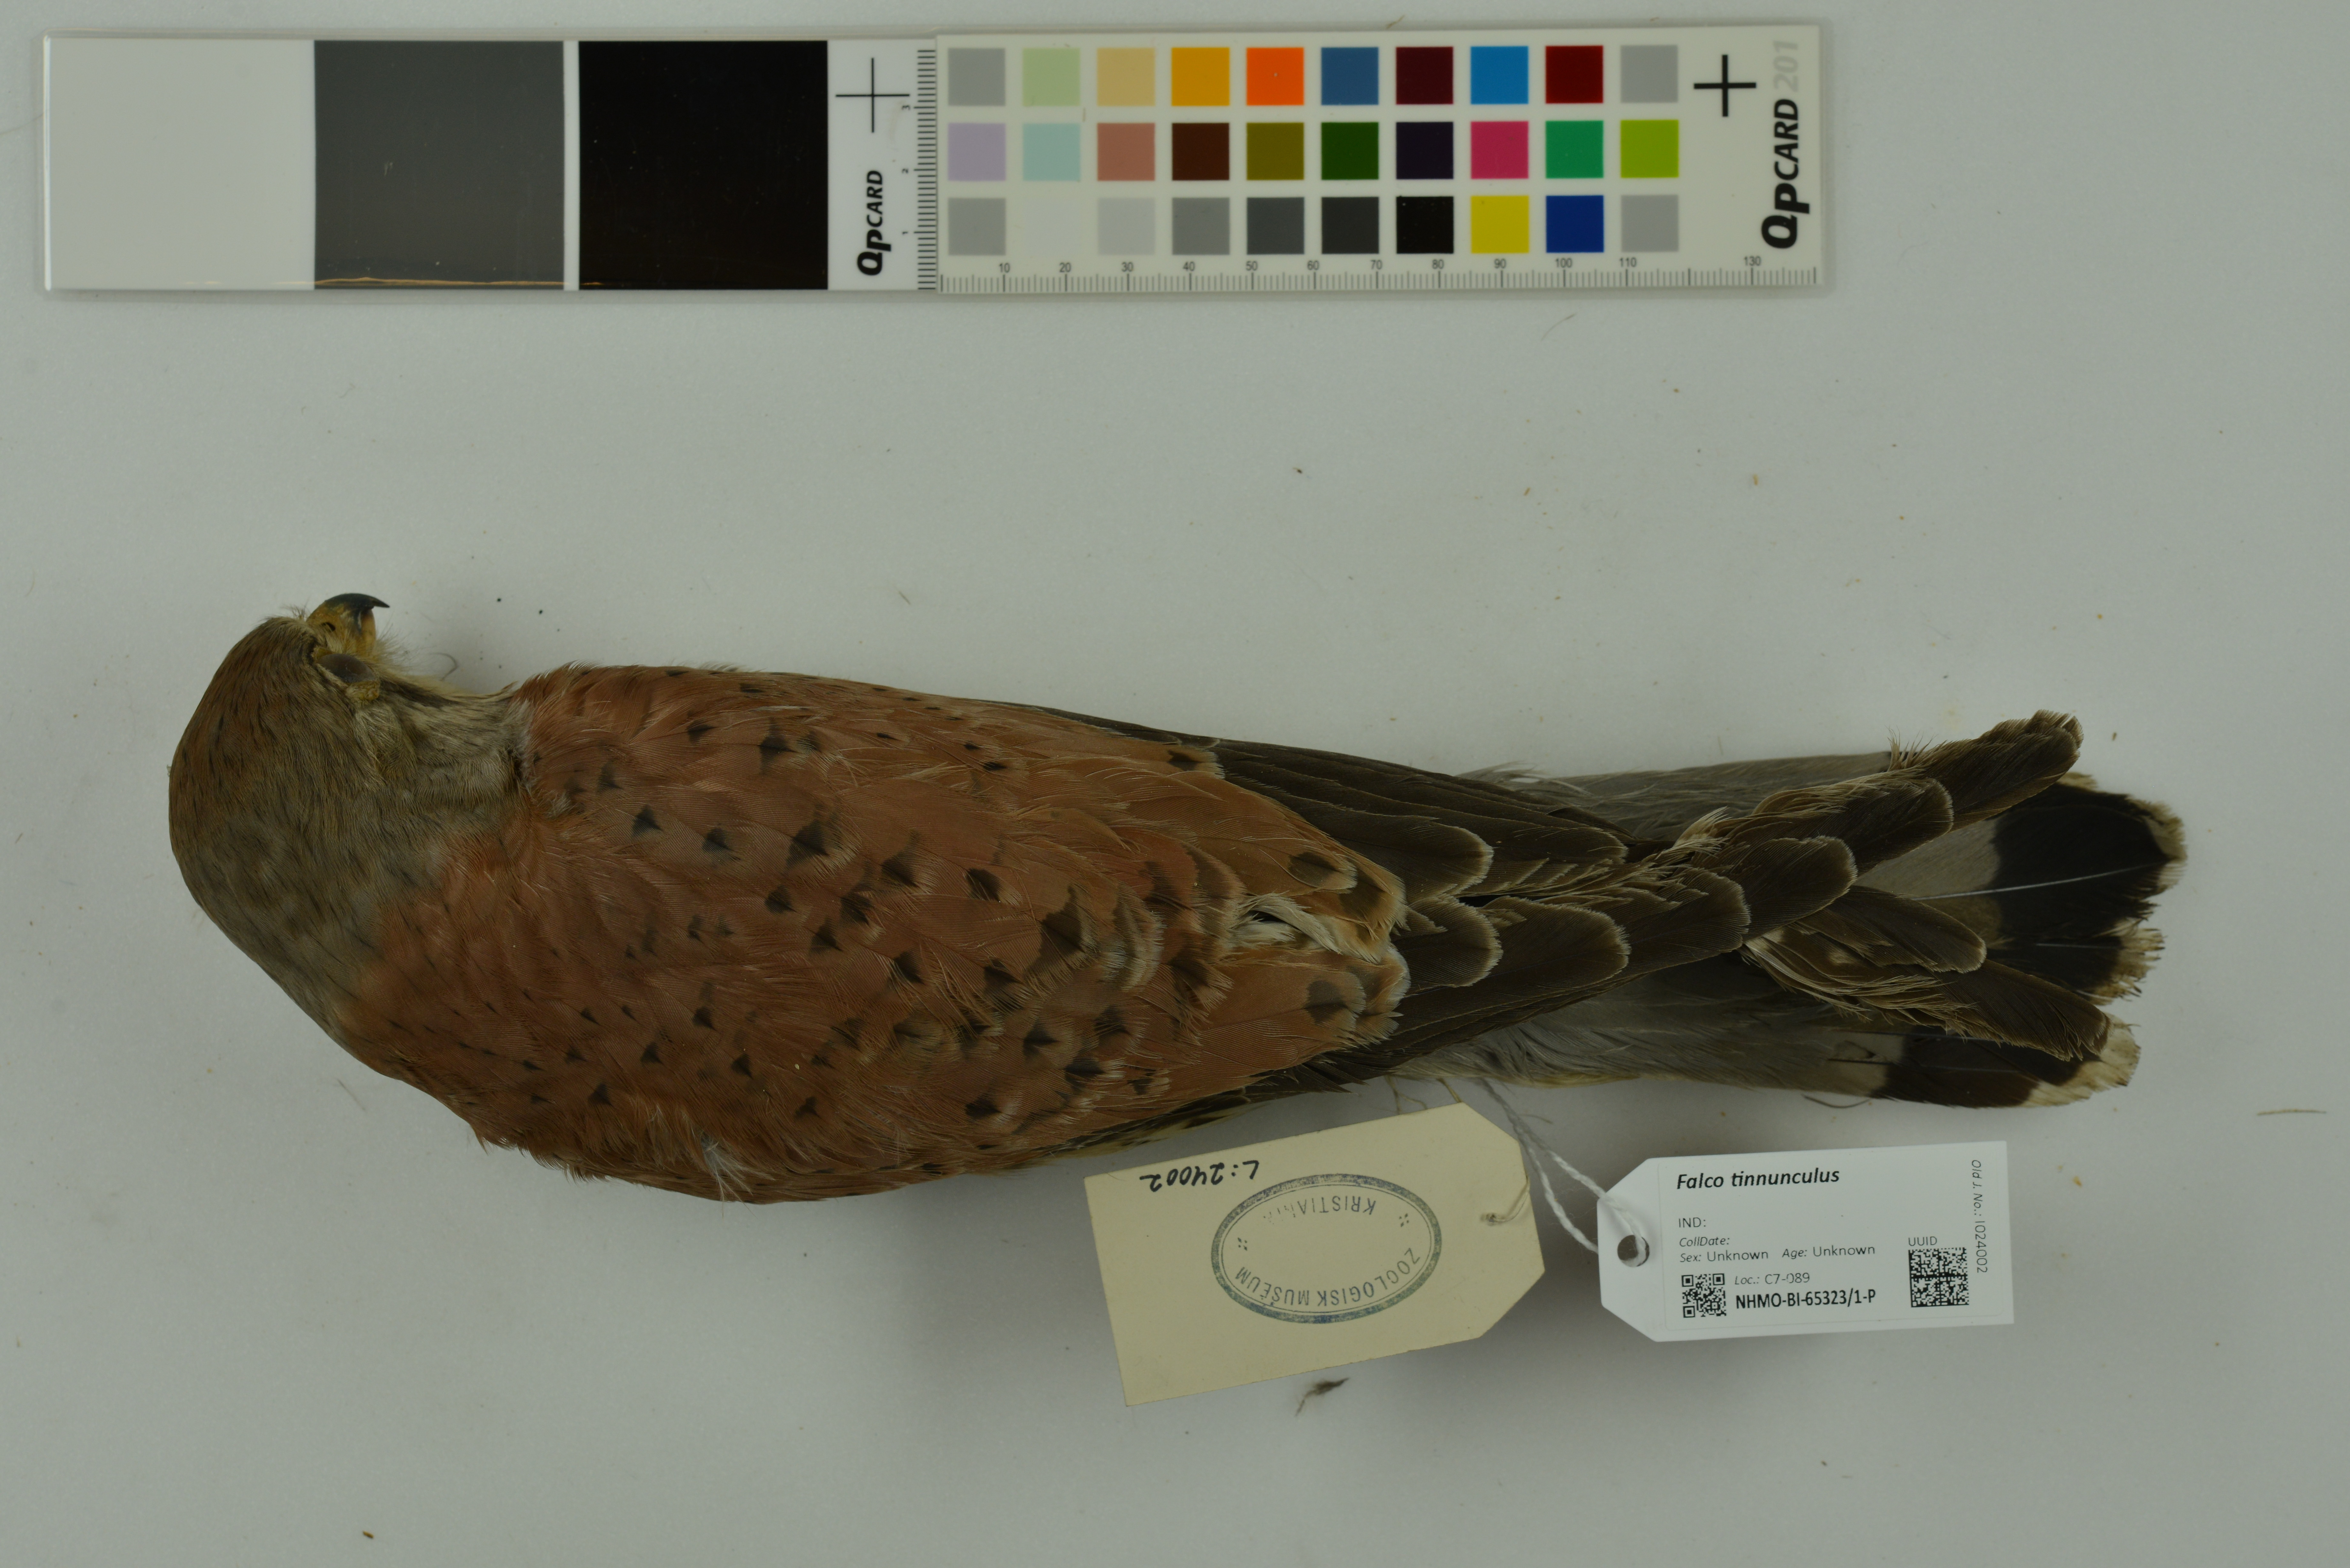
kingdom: Animalia
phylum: Chordata
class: Aves
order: Falconiformes
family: Falconidae
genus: Falco
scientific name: Falco tinnunculus
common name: Common kestrel
